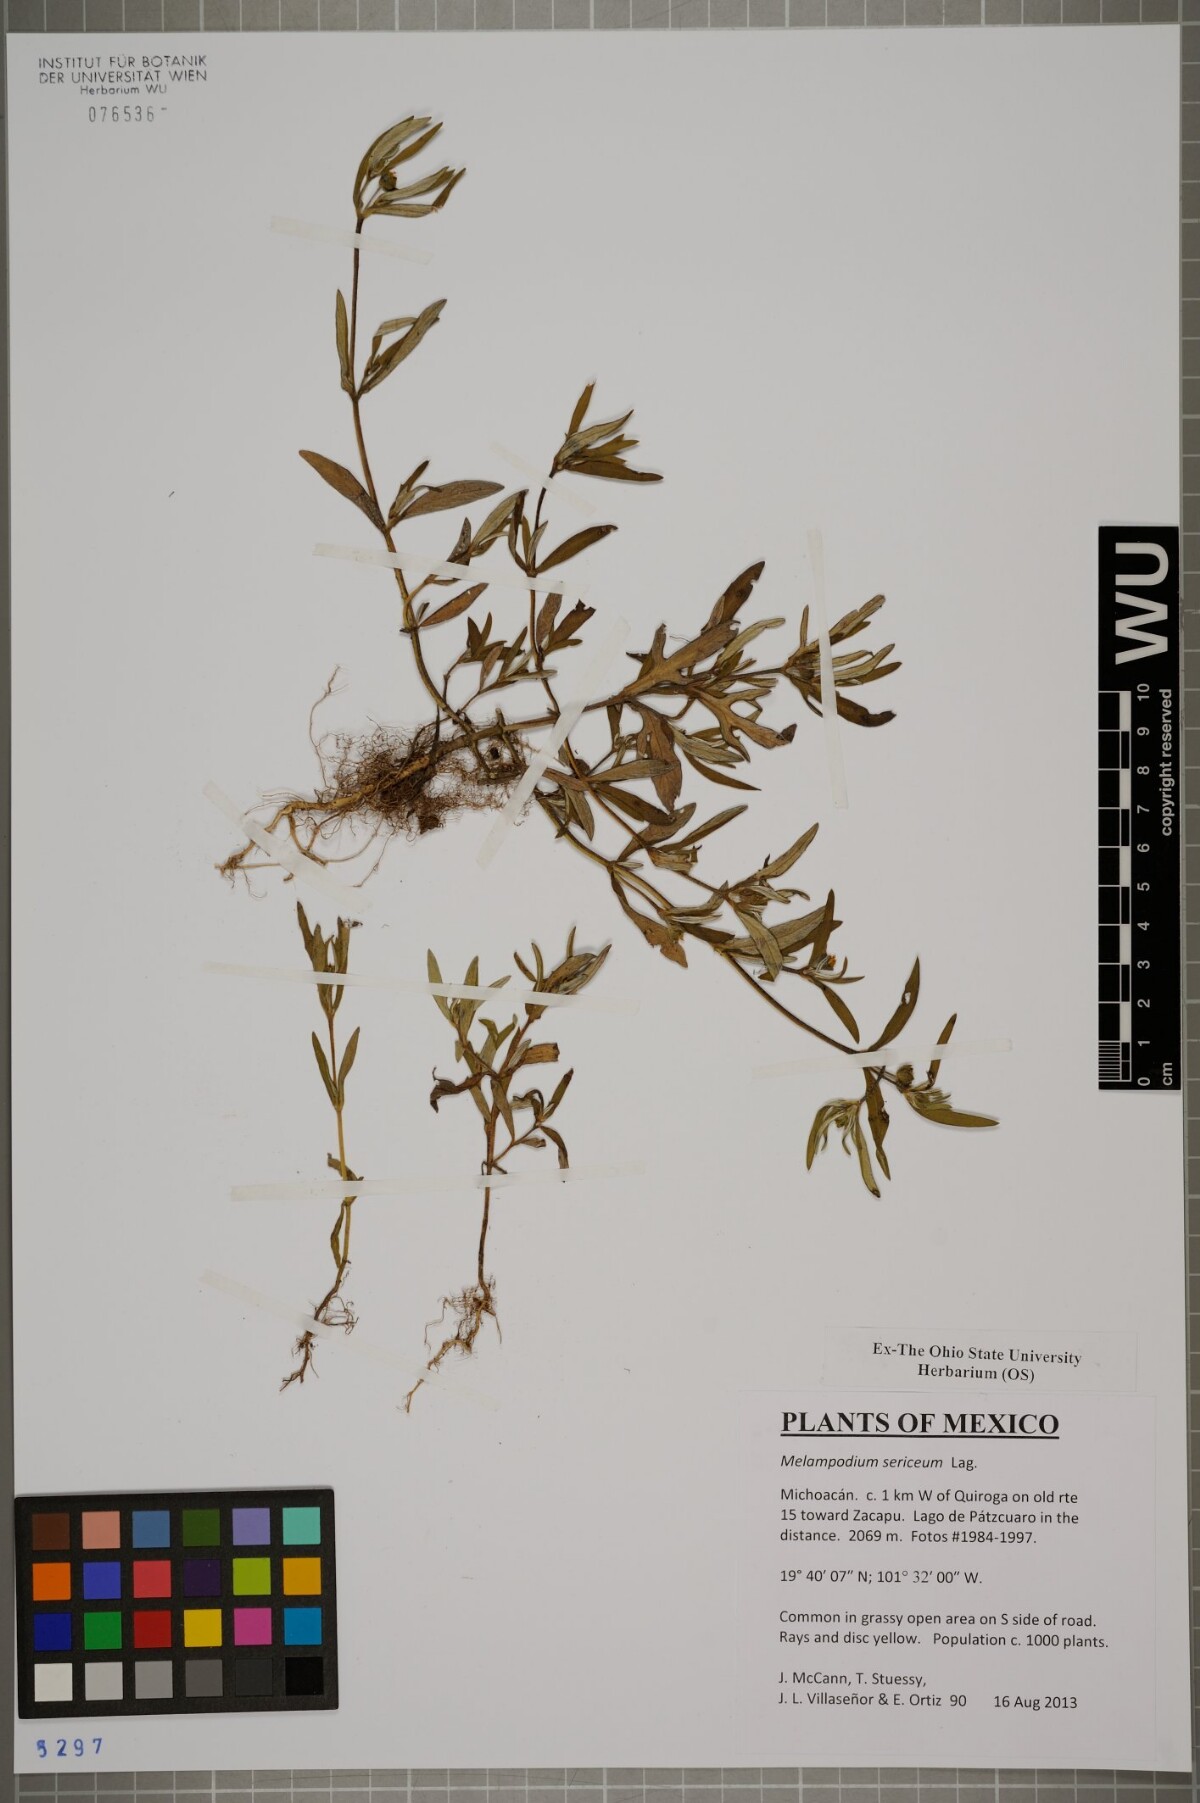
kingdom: Plantae
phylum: Tracheophyta
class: Magnoliopsida
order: Asterales
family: Asteraceae
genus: Melampodium
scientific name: Melampodium sericeum
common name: Rough blackfoot
